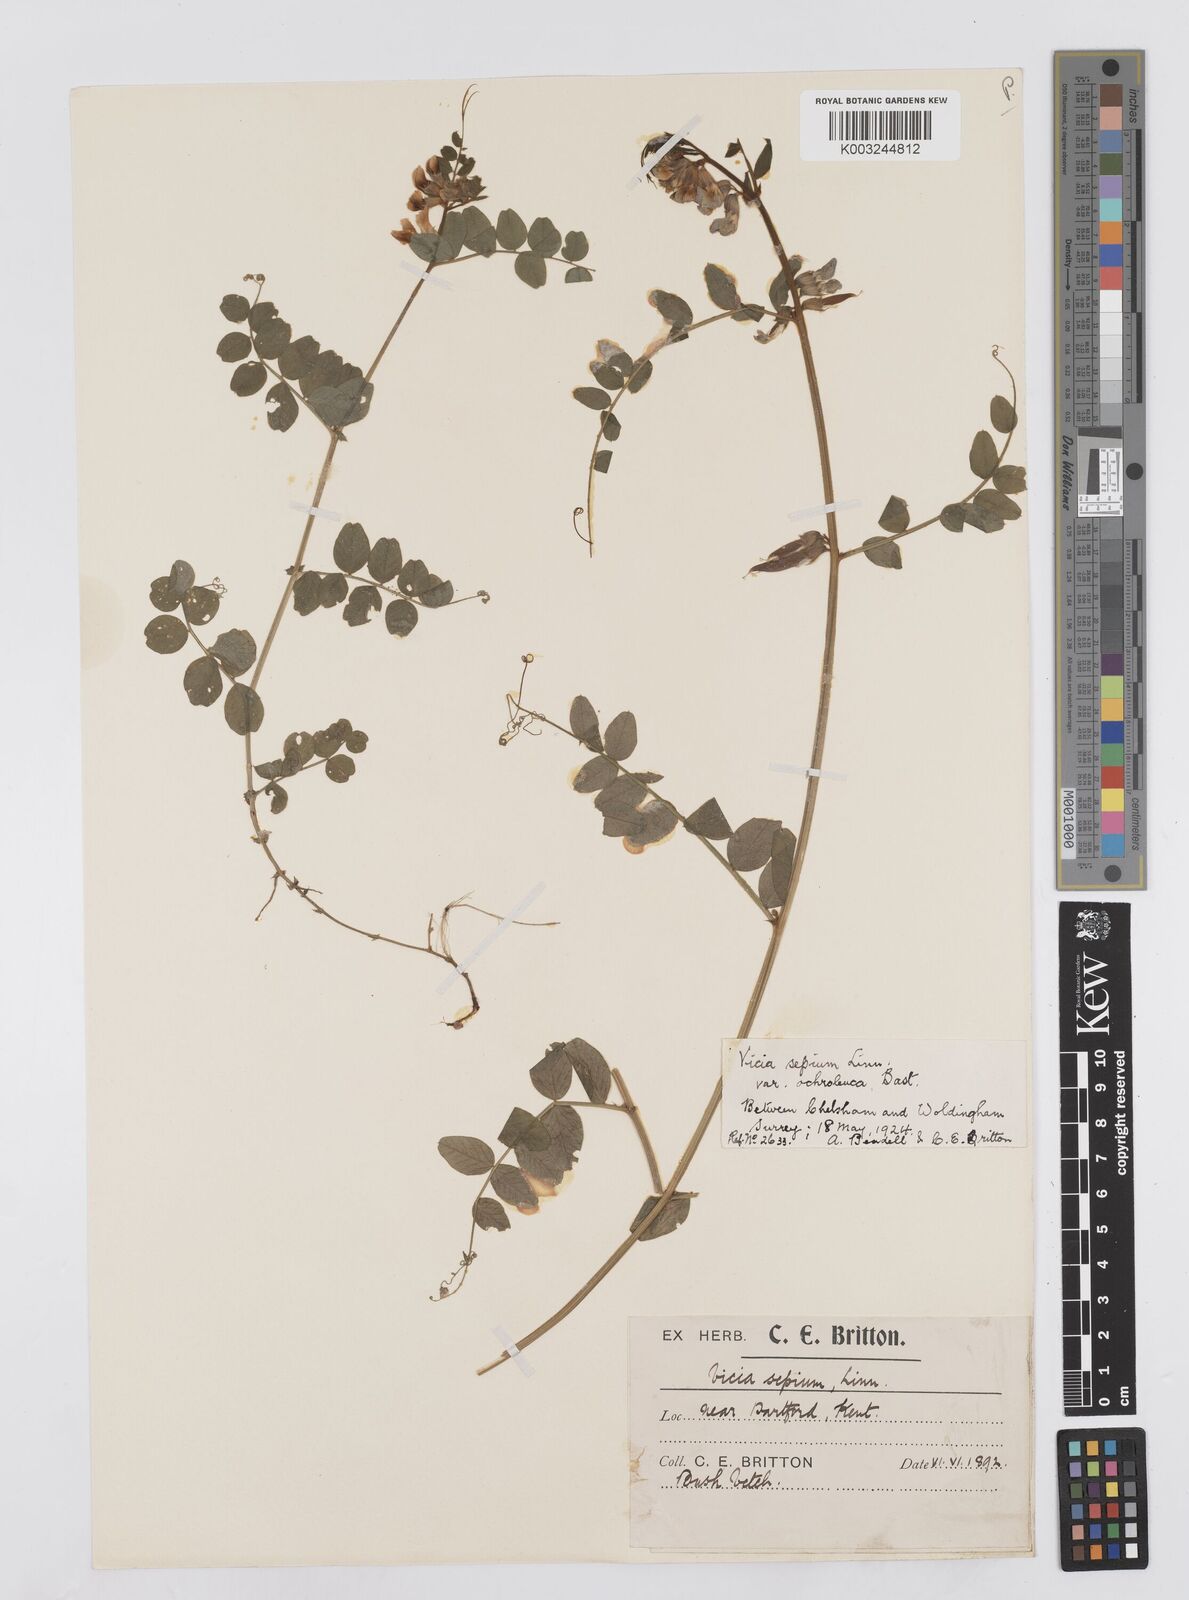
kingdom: Plantae
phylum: Tracheophyta
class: Magnoliopsida
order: Fabales
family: Fabaceae
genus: Vicia
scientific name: Vicia sepium
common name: Bush vetch
